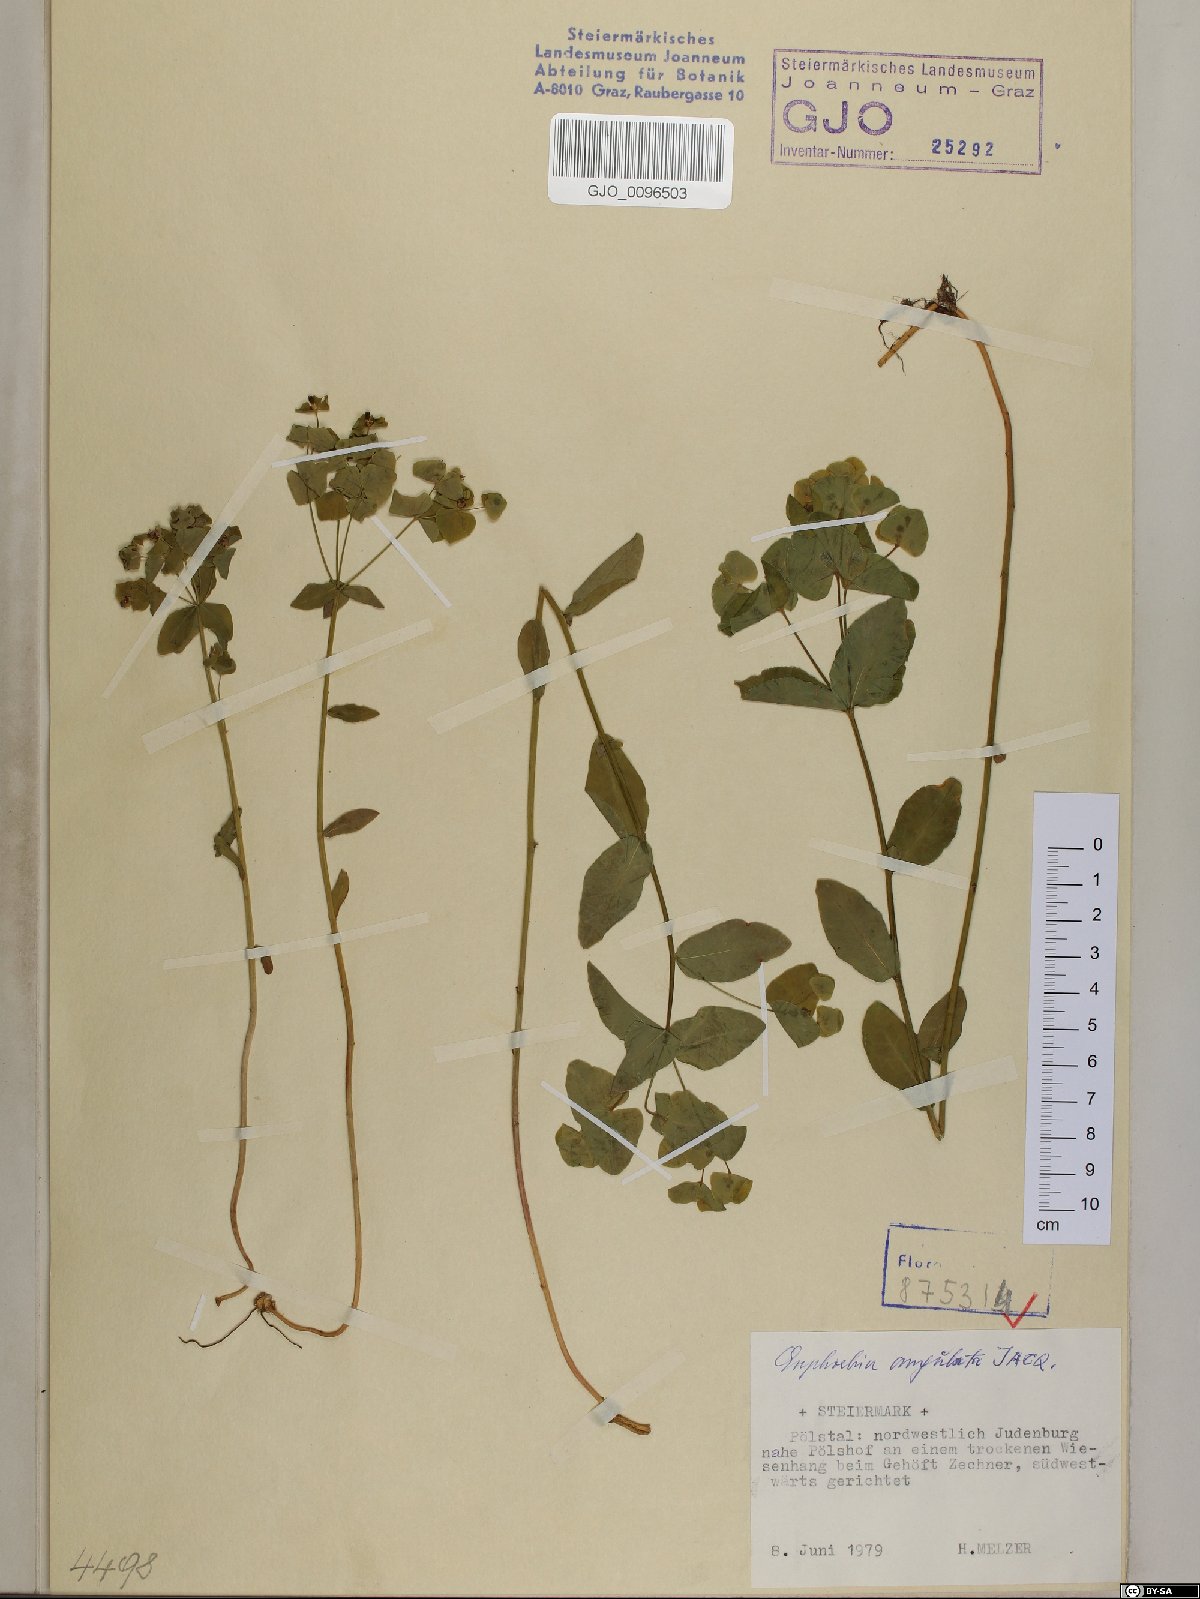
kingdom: Plantae
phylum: Tracheophyta
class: Magnoliopsida
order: Malpighiales
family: Euphorbiaceae
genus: Euphorbia
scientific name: Euphorbia angulata
